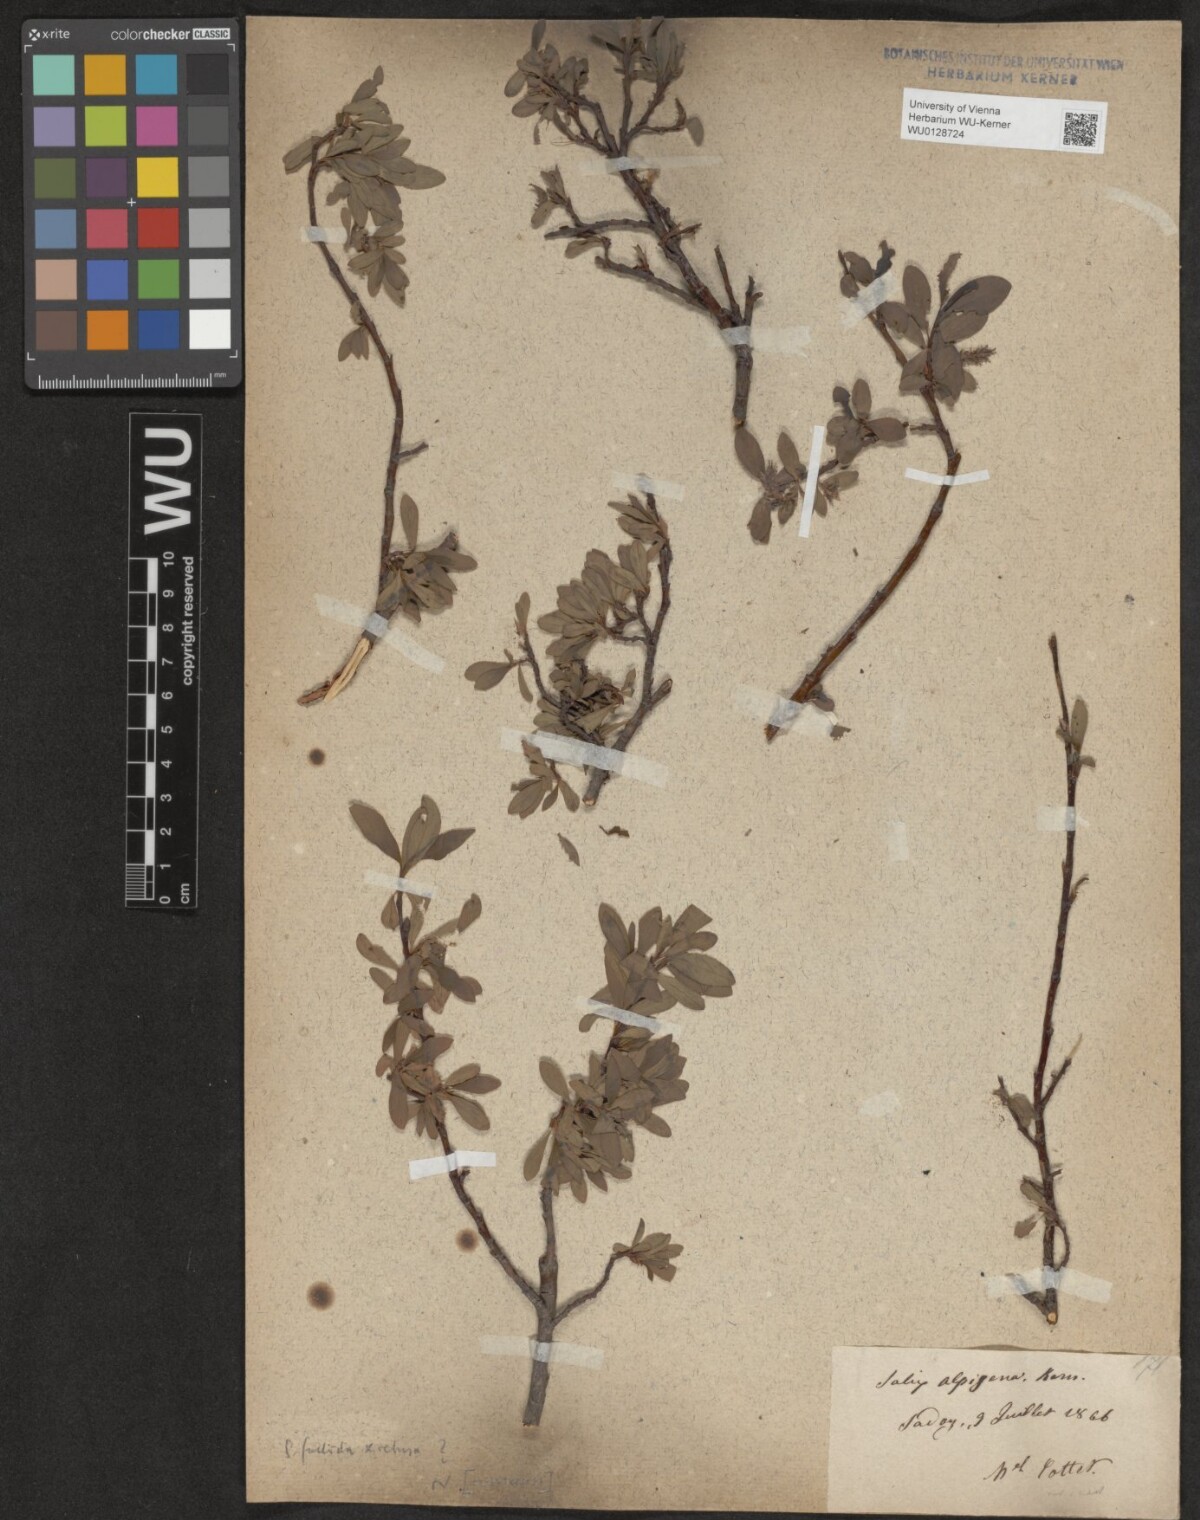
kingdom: Plantae
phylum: Tracheophyta
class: Magnoliopsida
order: Malpighiales
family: Salicaceae
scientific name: Salicaceae
